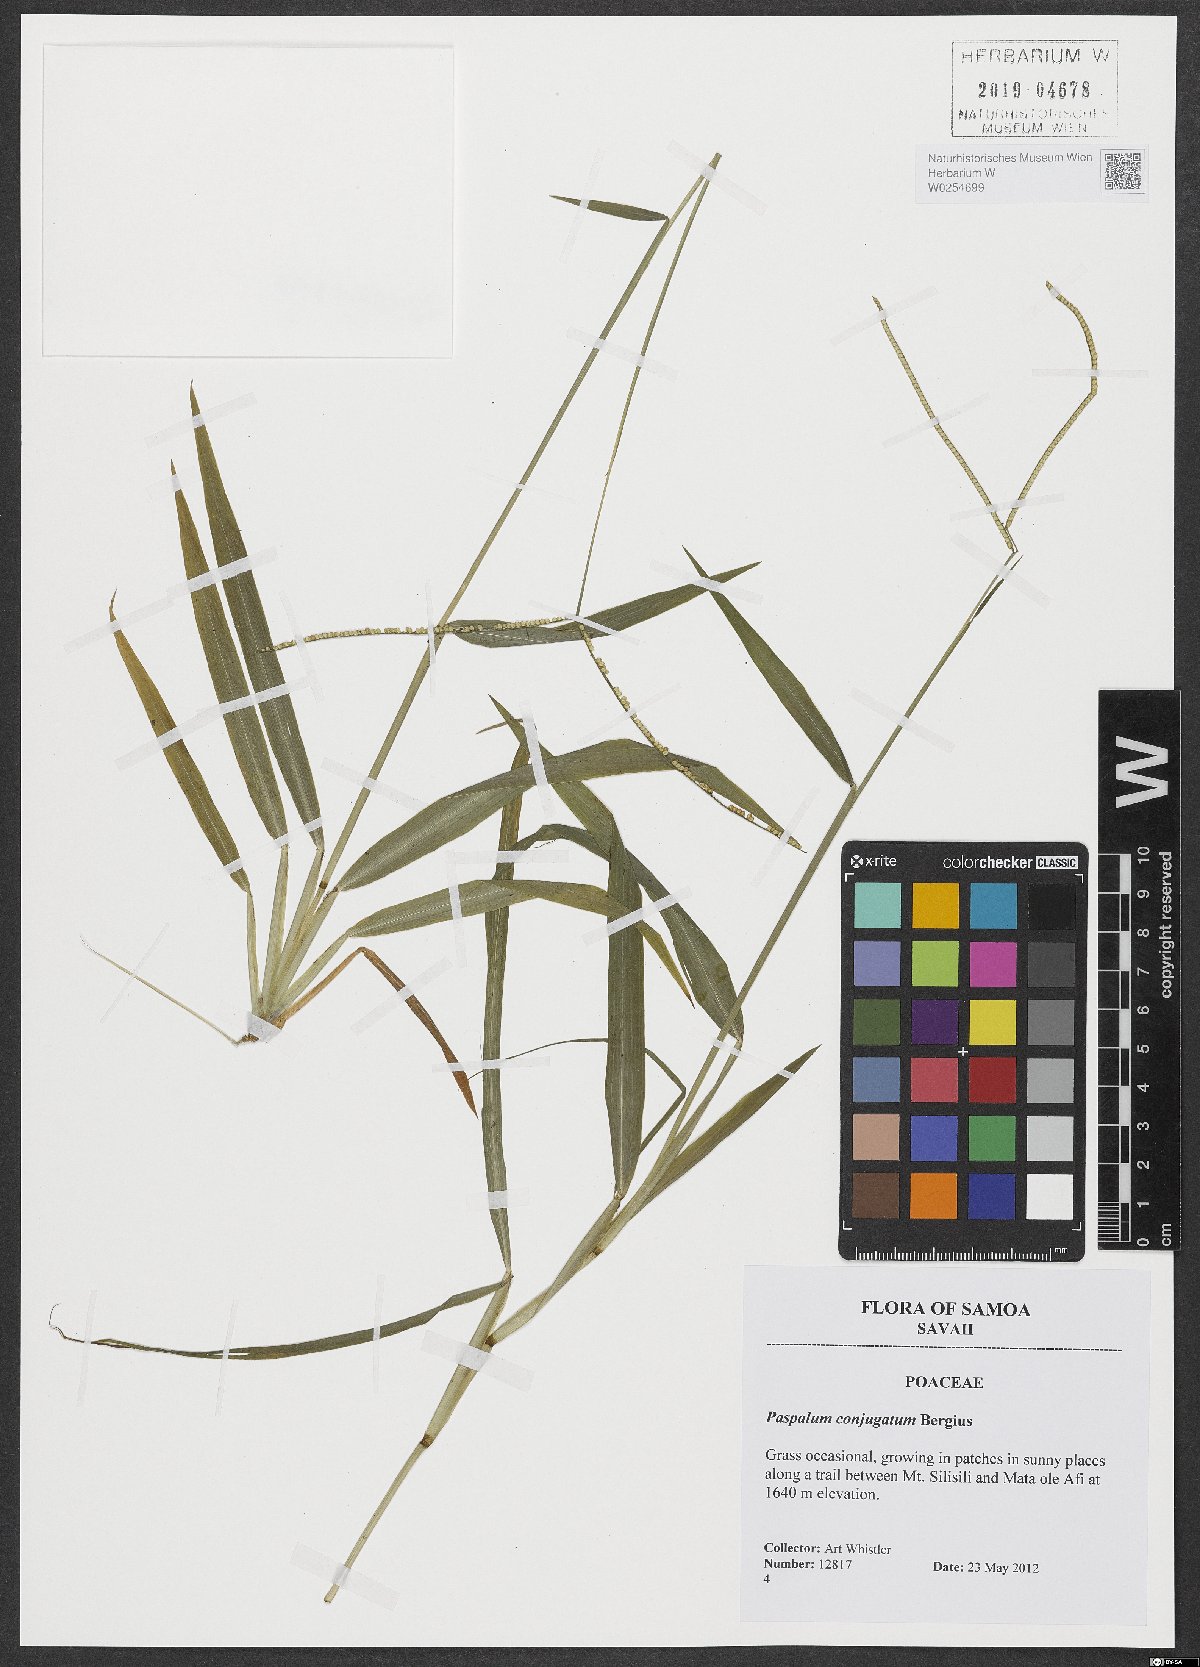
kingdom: Plantae
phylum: Tracheophyta
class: Liliopsida
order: Poales
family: Poaceae
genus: Paspalum
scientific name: Paspalum conjugatum
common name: Hilograss
